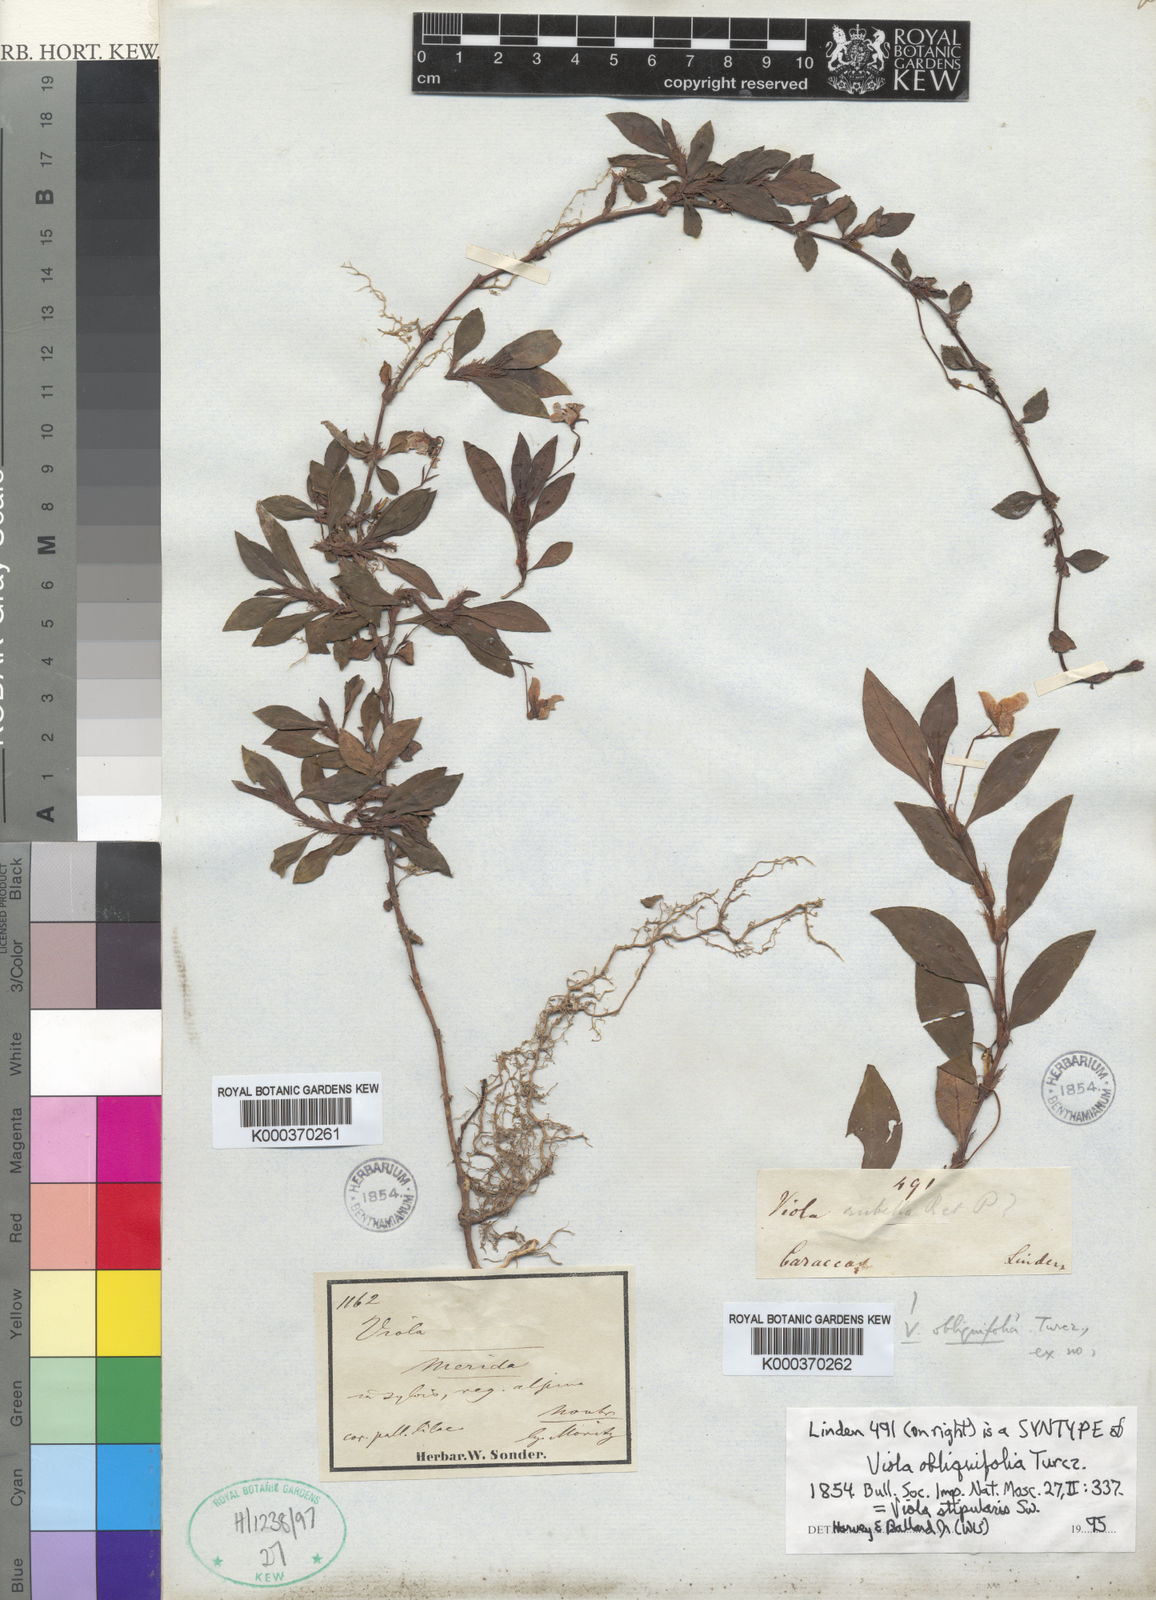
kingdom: Plantae
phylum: Tracheophyta
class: Magnoliopsida
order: Malpighiales
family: Violaceae
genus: Viola
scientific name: Viola scandens
